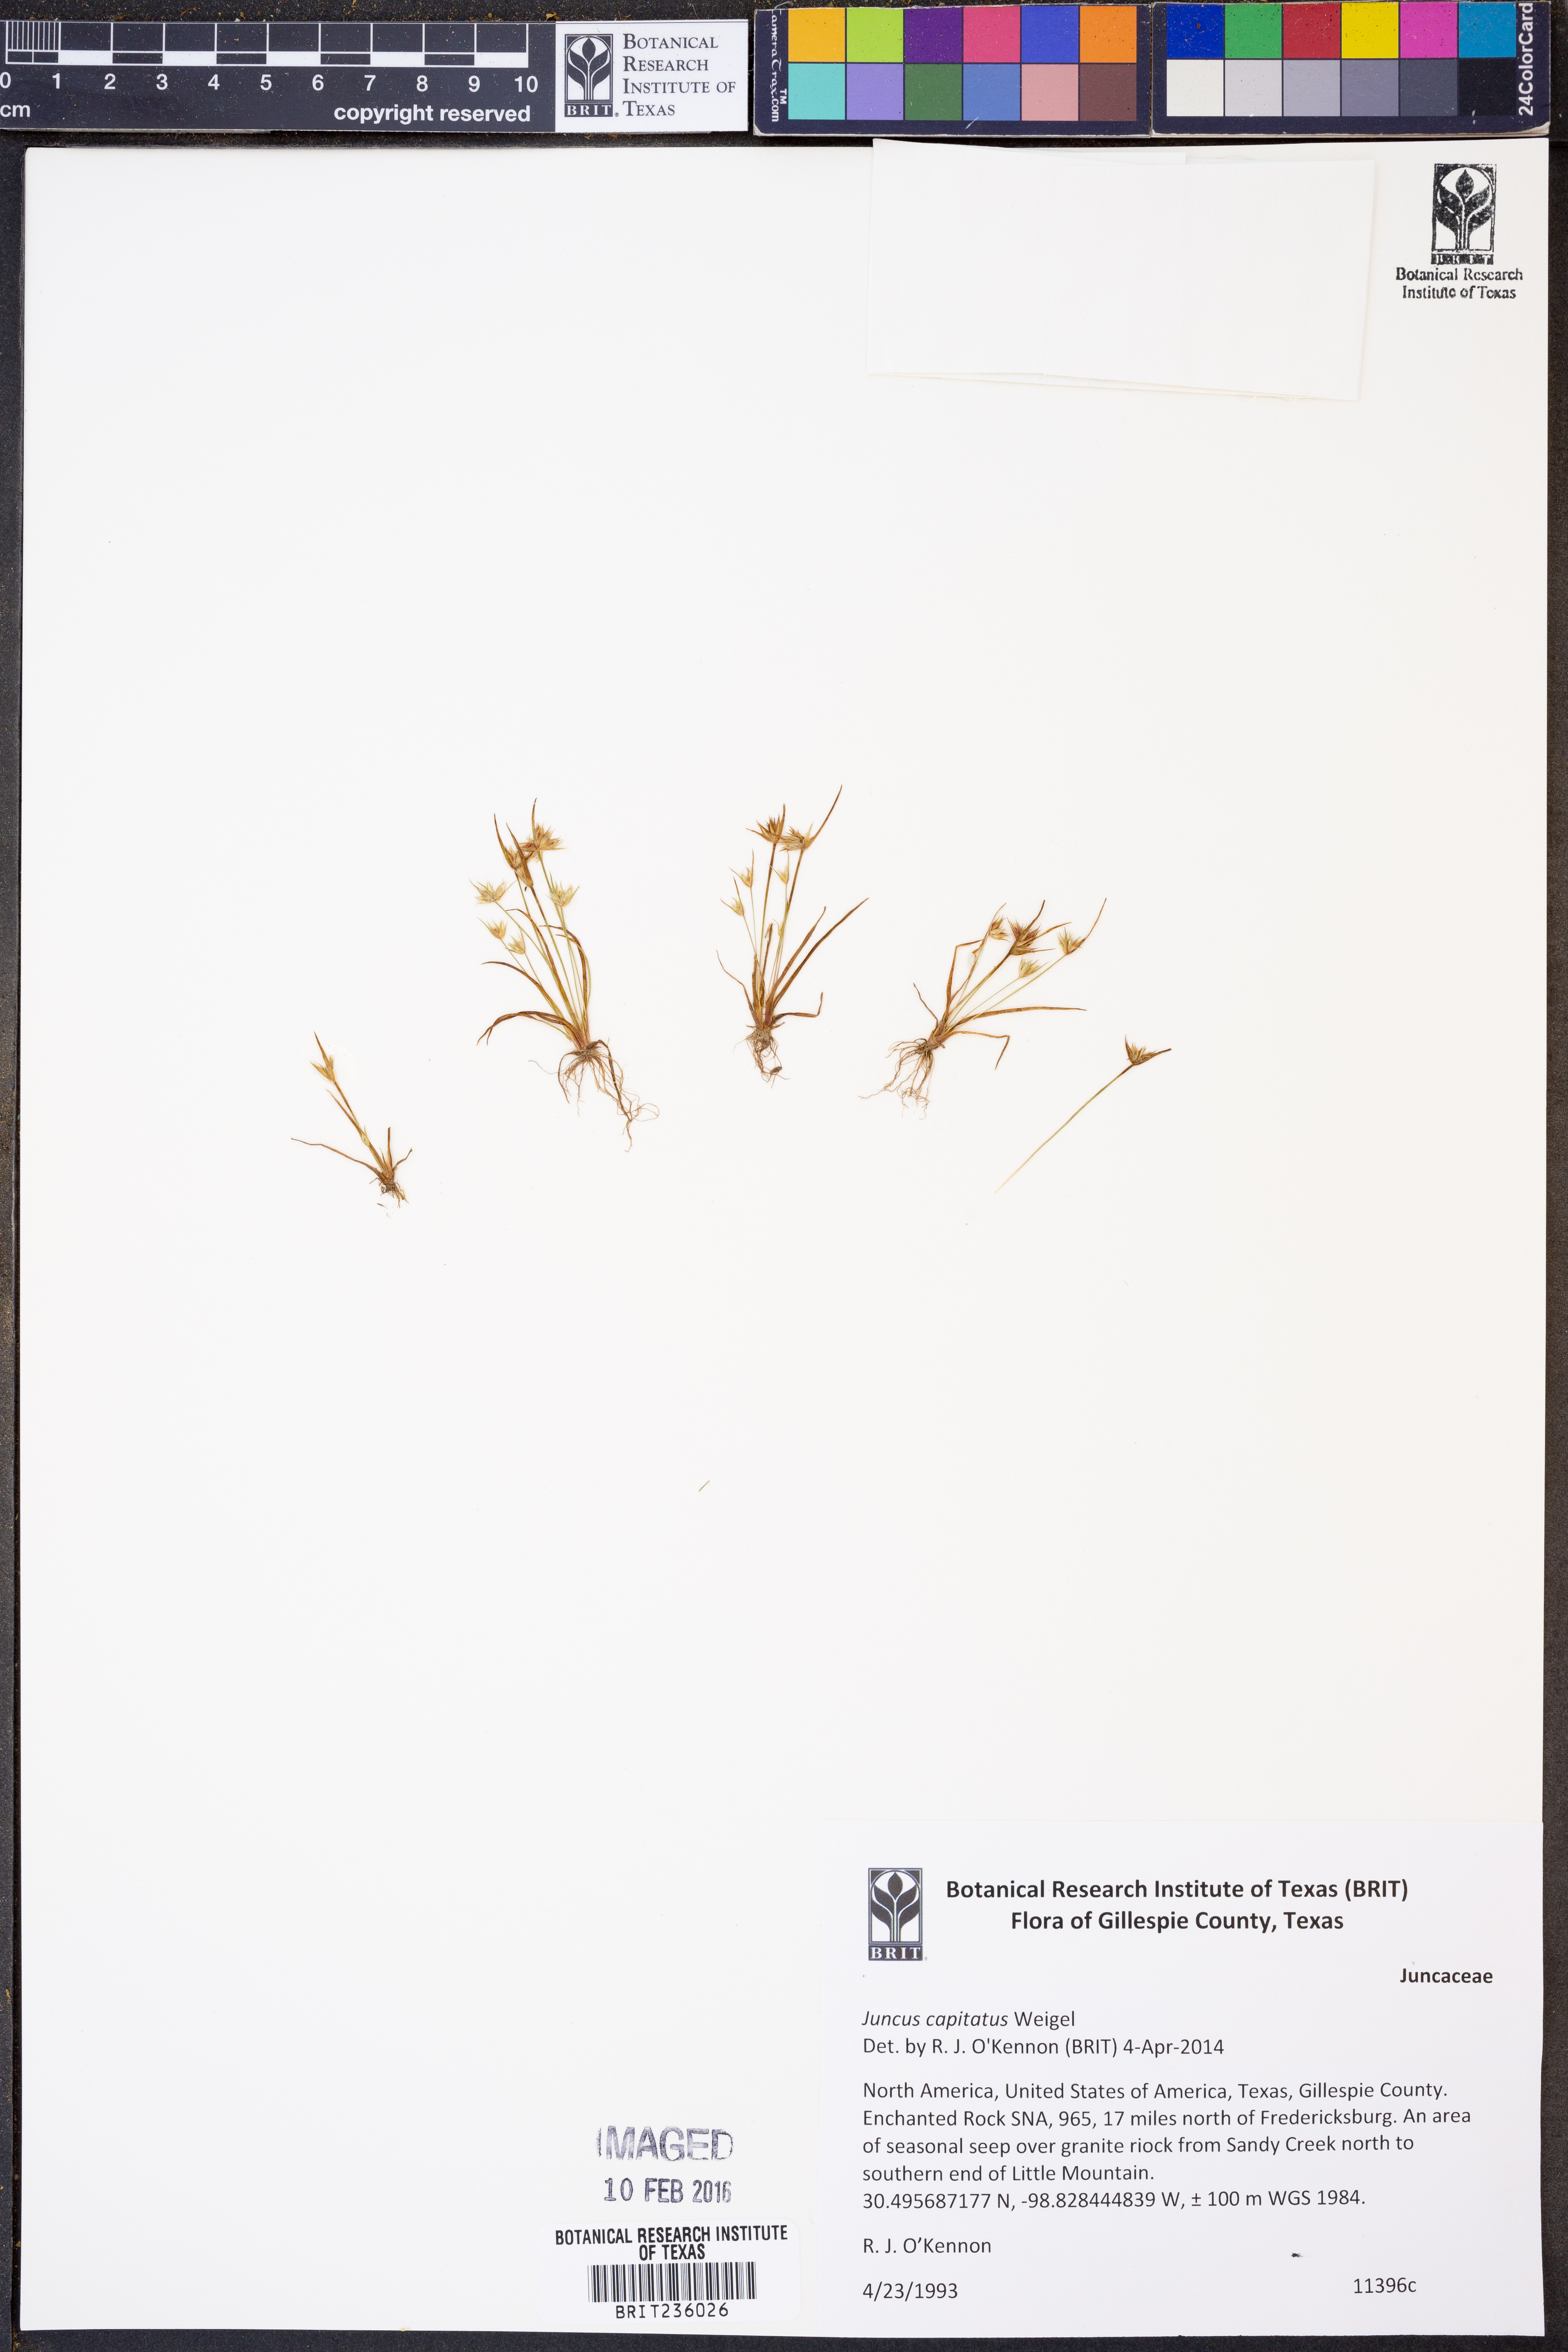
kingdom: Plantae
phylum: Tracheophyta
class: Liliopsida
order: Poales
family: Juncaceae
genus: Juncus
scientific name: Juncus capitatus
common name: Dwarf rush
